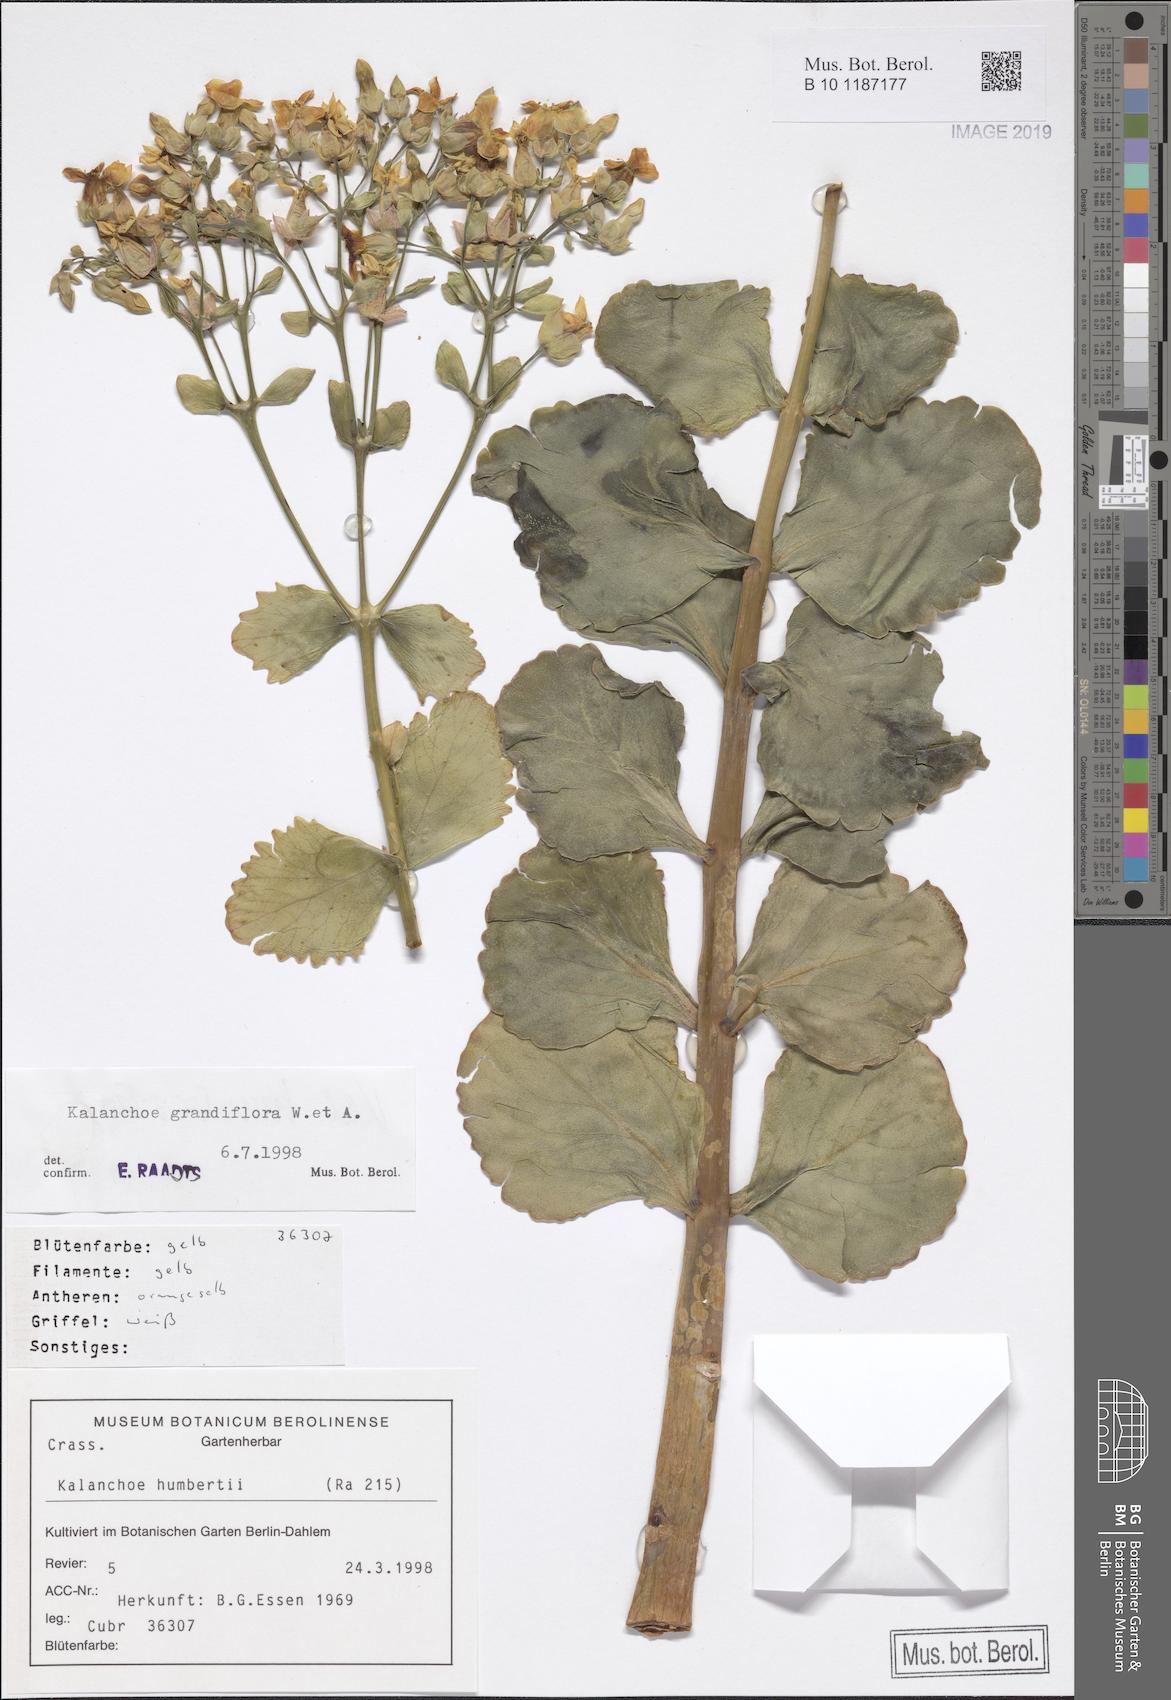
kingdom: Plantae
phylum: Tracheophyta
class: Magnoliopsida
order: Saxifragales
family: Crassulaceae
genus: Kalanchoe
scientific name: Kalanchoe grandiflora
